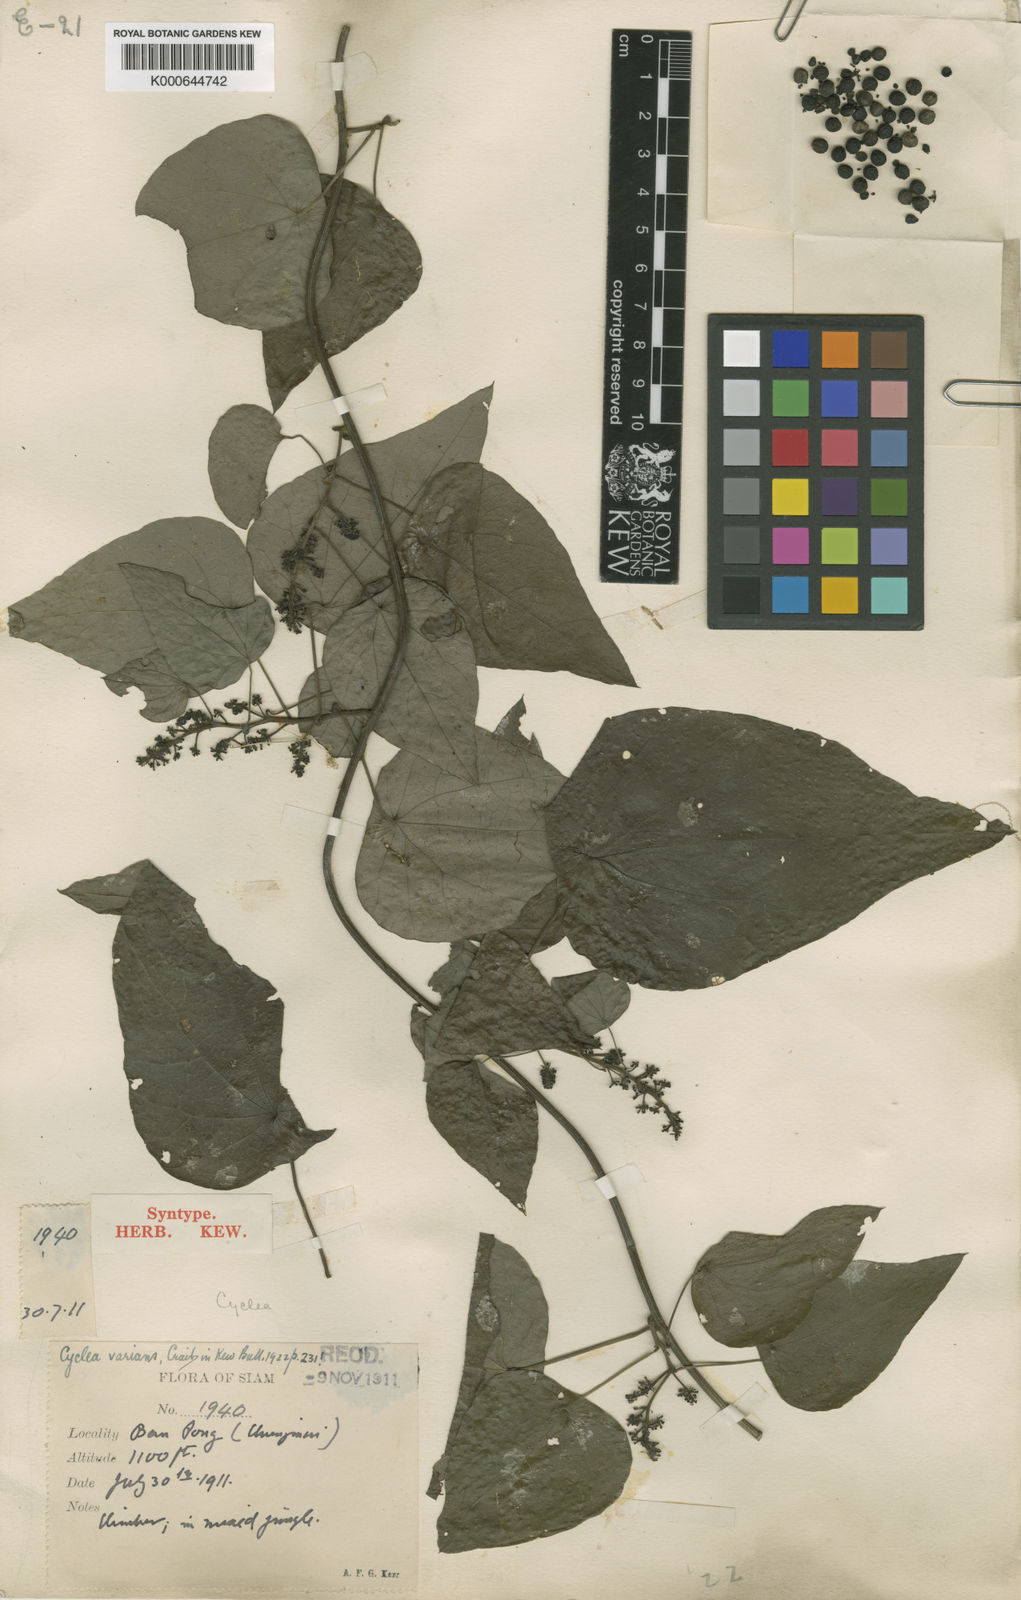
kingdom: Plantae
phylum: Tracheophyta
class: Magnoliopsida
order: Ranunculales
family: Menispermaceae
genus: Cyclea
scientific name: Cyclea varians
